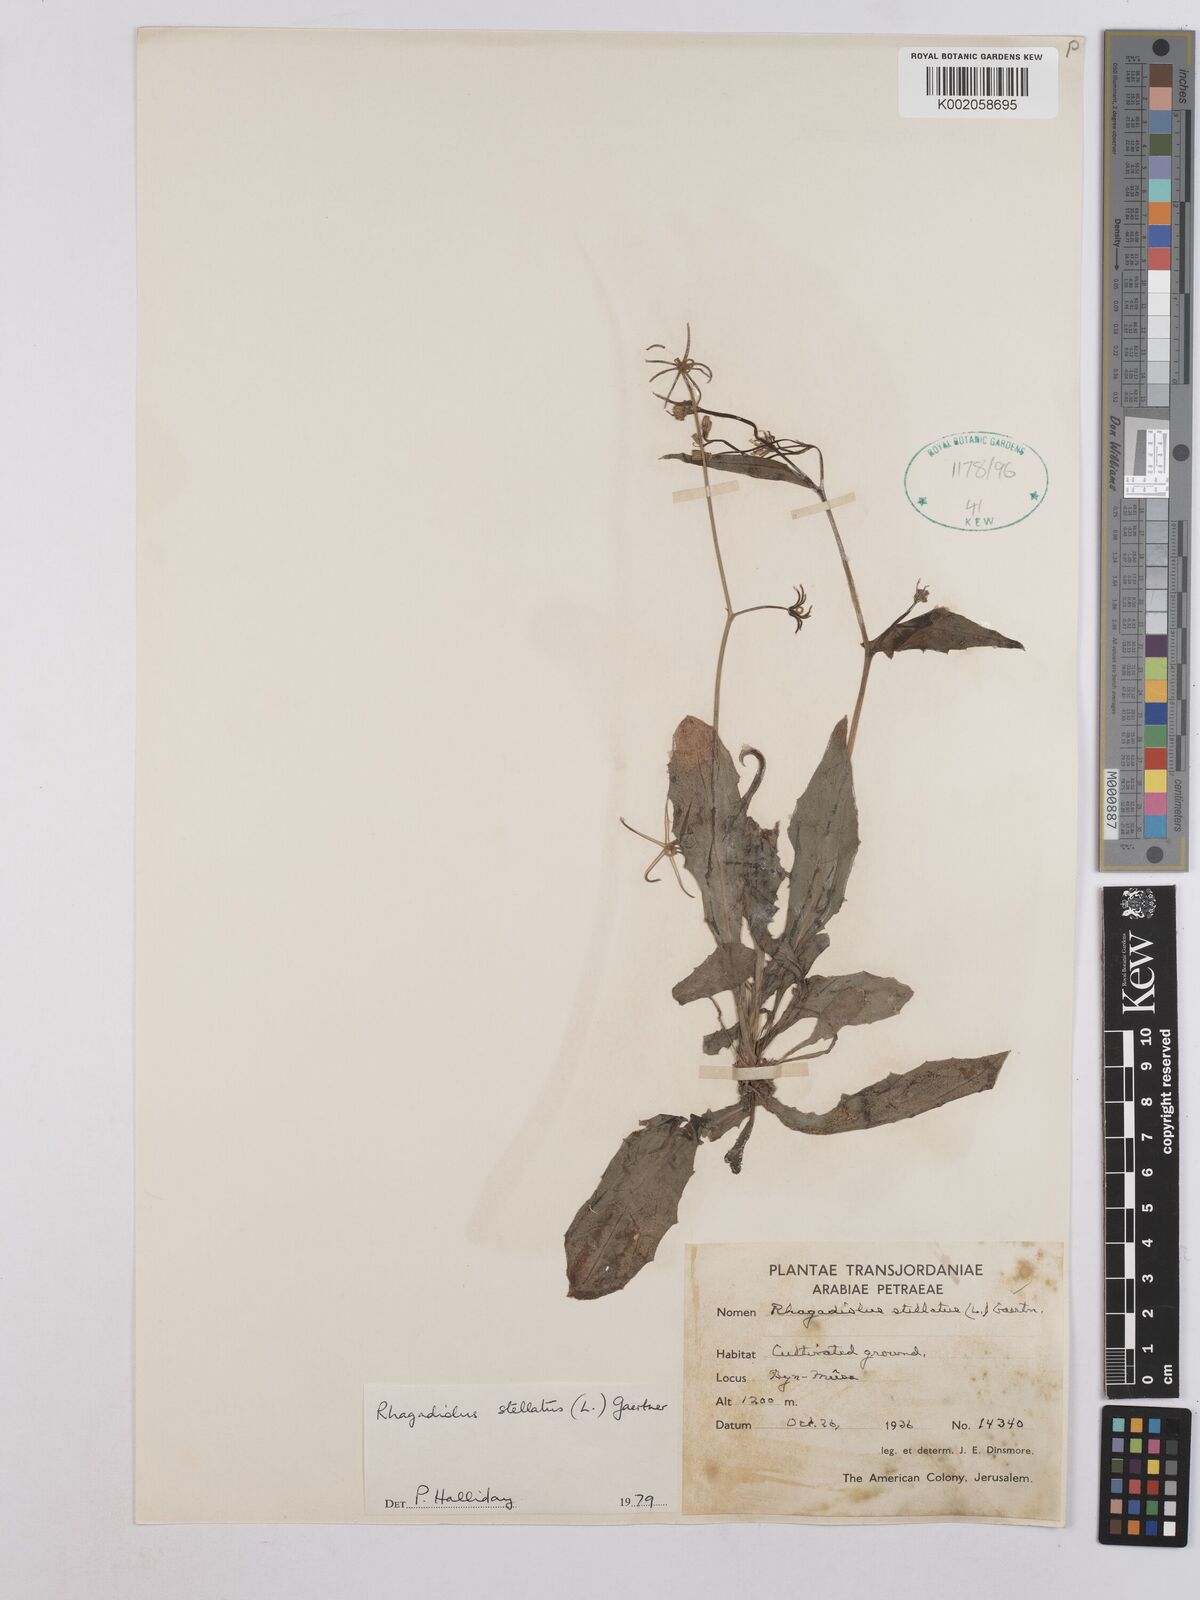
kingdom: Plantae
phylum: Tracheophyta
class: Magnoliopsida
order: Asterales
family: Asteraceae
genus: Rhagadiolus
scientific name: Rhagadiolus stellatus
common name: Star hawkbit
